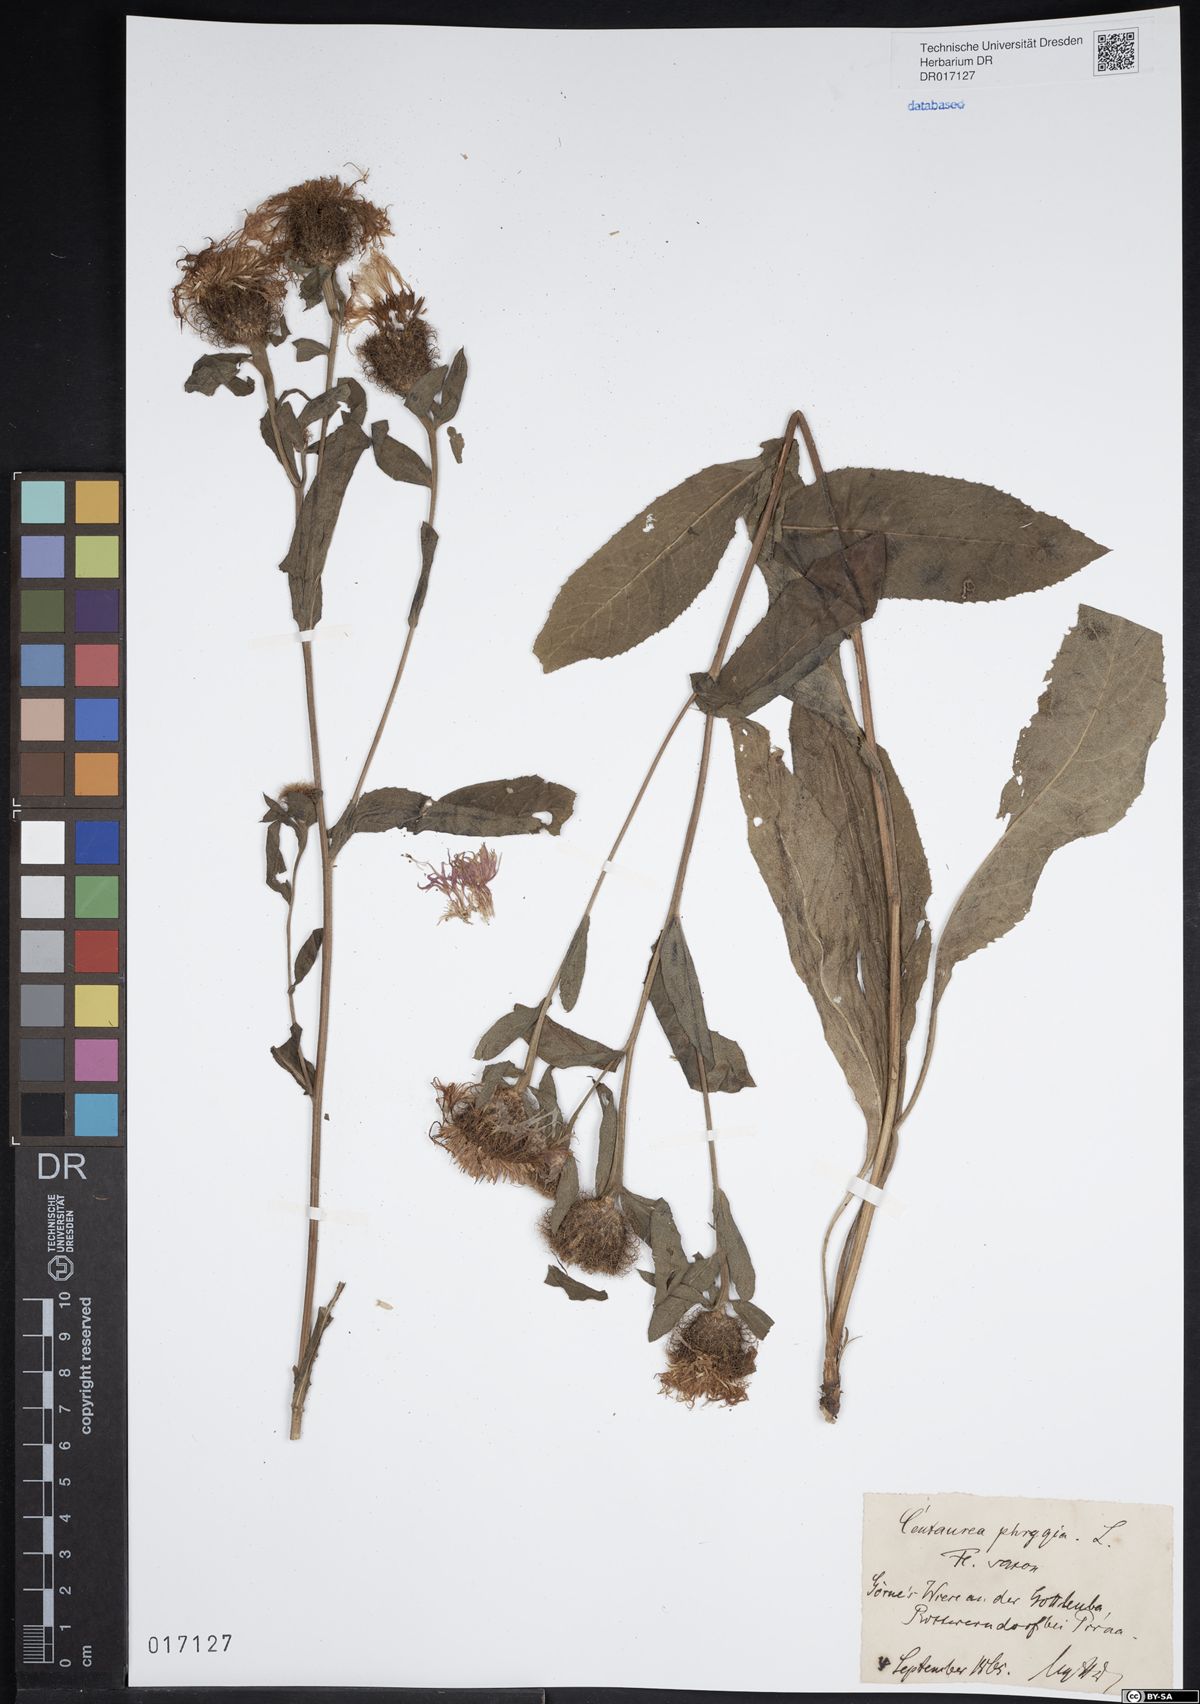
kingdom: Plantae
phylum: Tracheophyta
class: Magnoliopsida
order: Asterales
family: Asteraceae
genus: Centaurea
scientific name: Centaurea pseudophrygia
